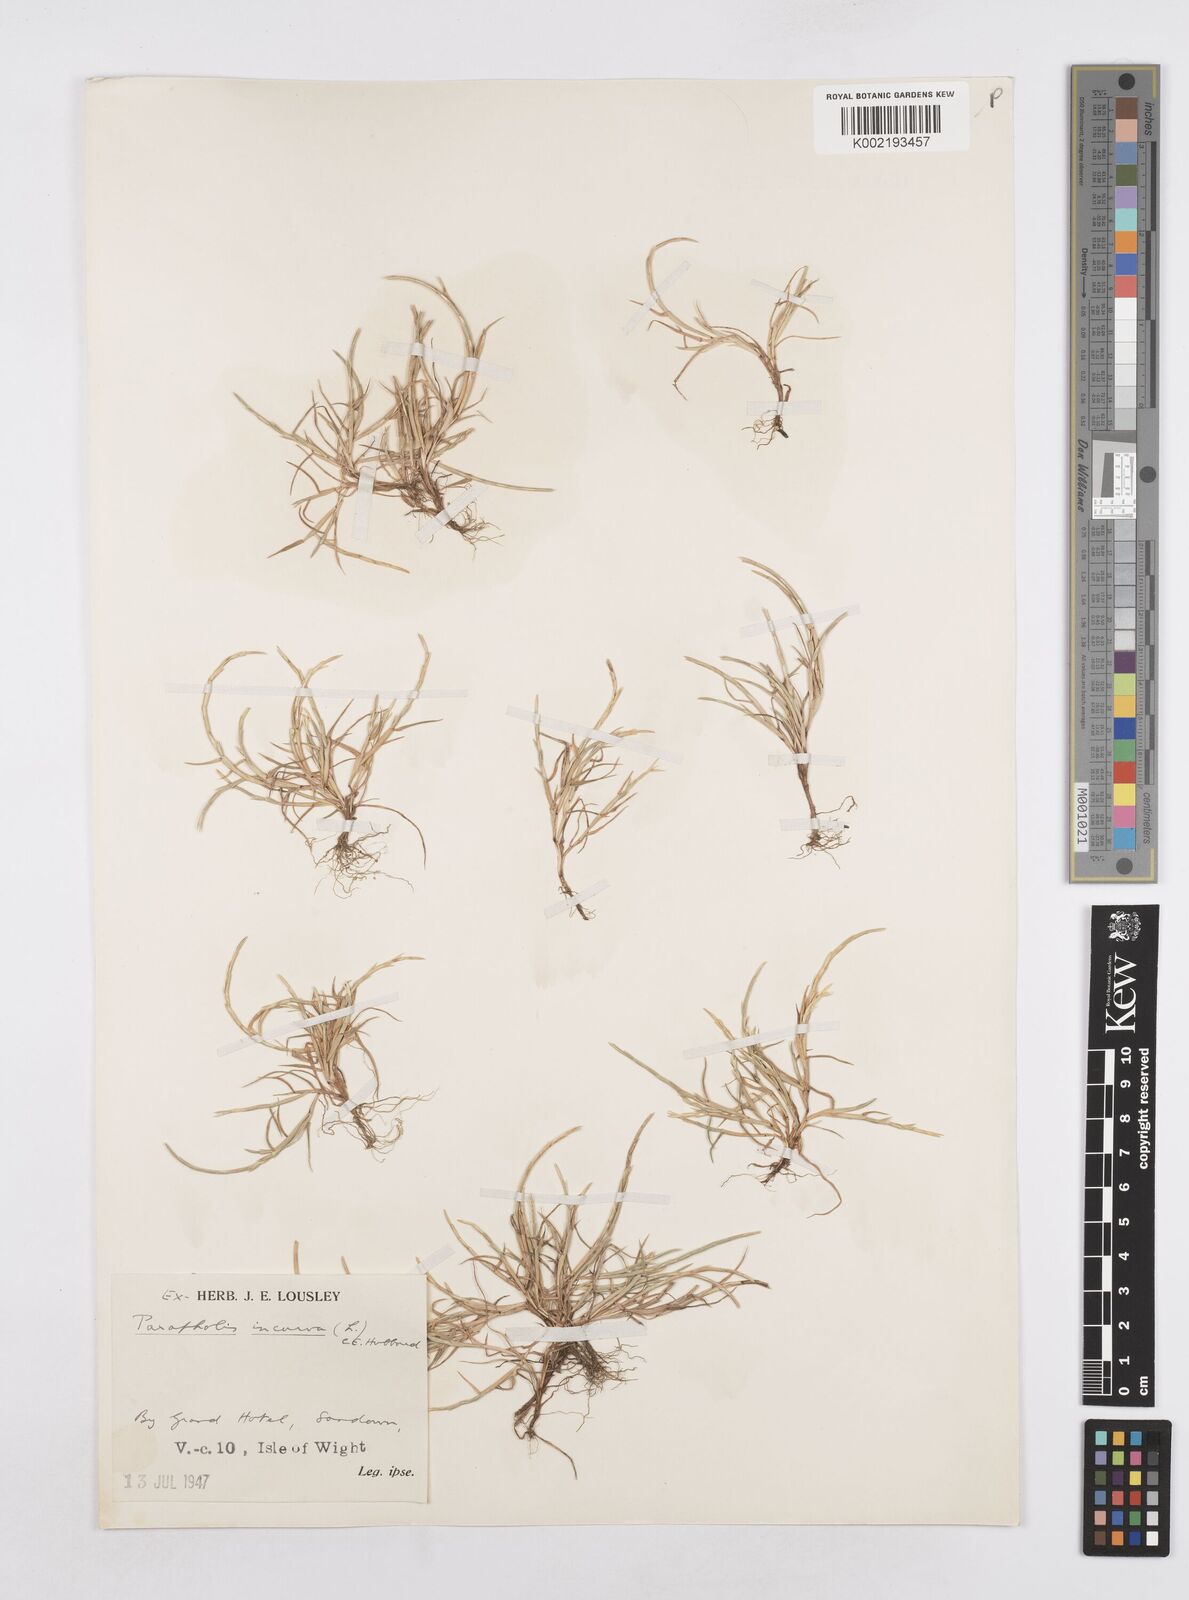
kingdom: Plantae
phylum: Tracheophyta
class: Liliopsida
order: Poales
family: Poaceae
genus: Parapholis
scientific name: Parapholis incurva
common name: Curved sicklegrass
